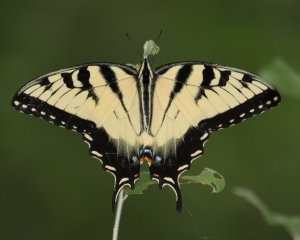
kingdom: Animalia
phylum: Arthropoda
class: Insecta
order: Lepidoptera
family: Papilionidae
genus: Pterourus
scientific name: Pterourus glaucus
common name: Eastern Tiger Swallowtail
